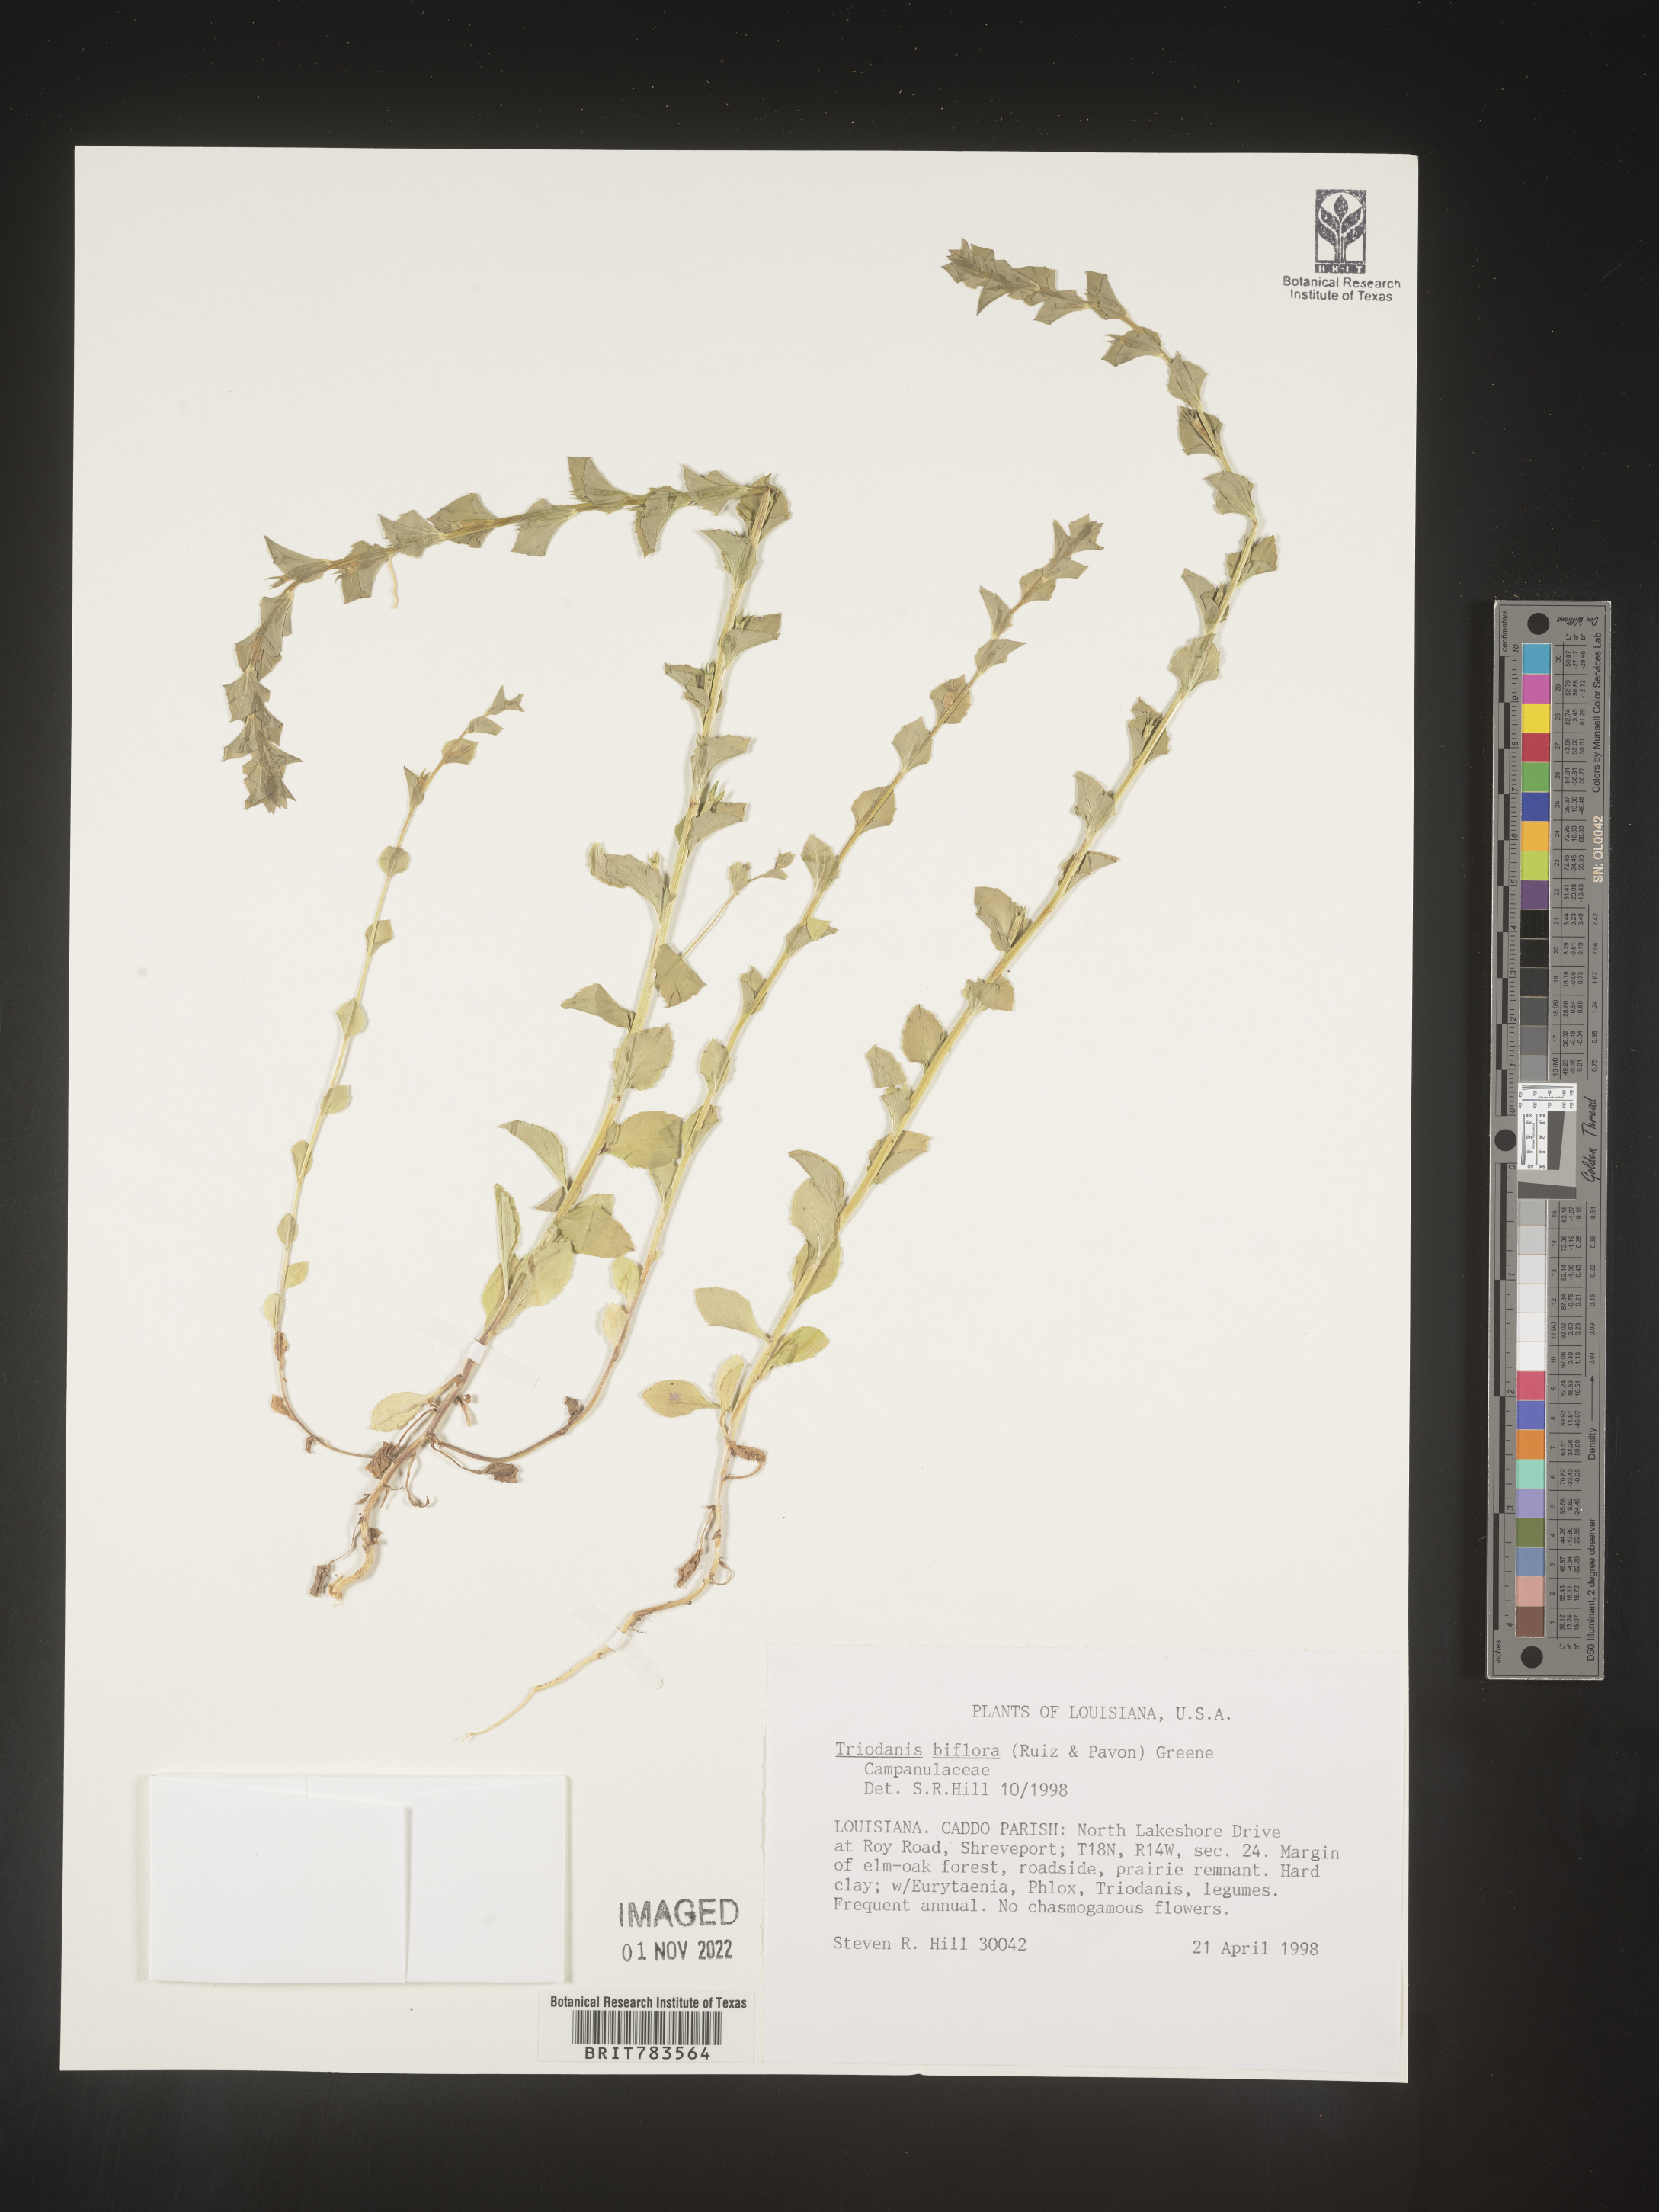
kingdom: Plantae
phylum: Tracheophyta
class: Magnoliopsida
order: Asterales
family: Campanulaceae
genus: Triodanis
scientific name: Triodanis perfoliata
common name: Clasping venus' looking-glass
